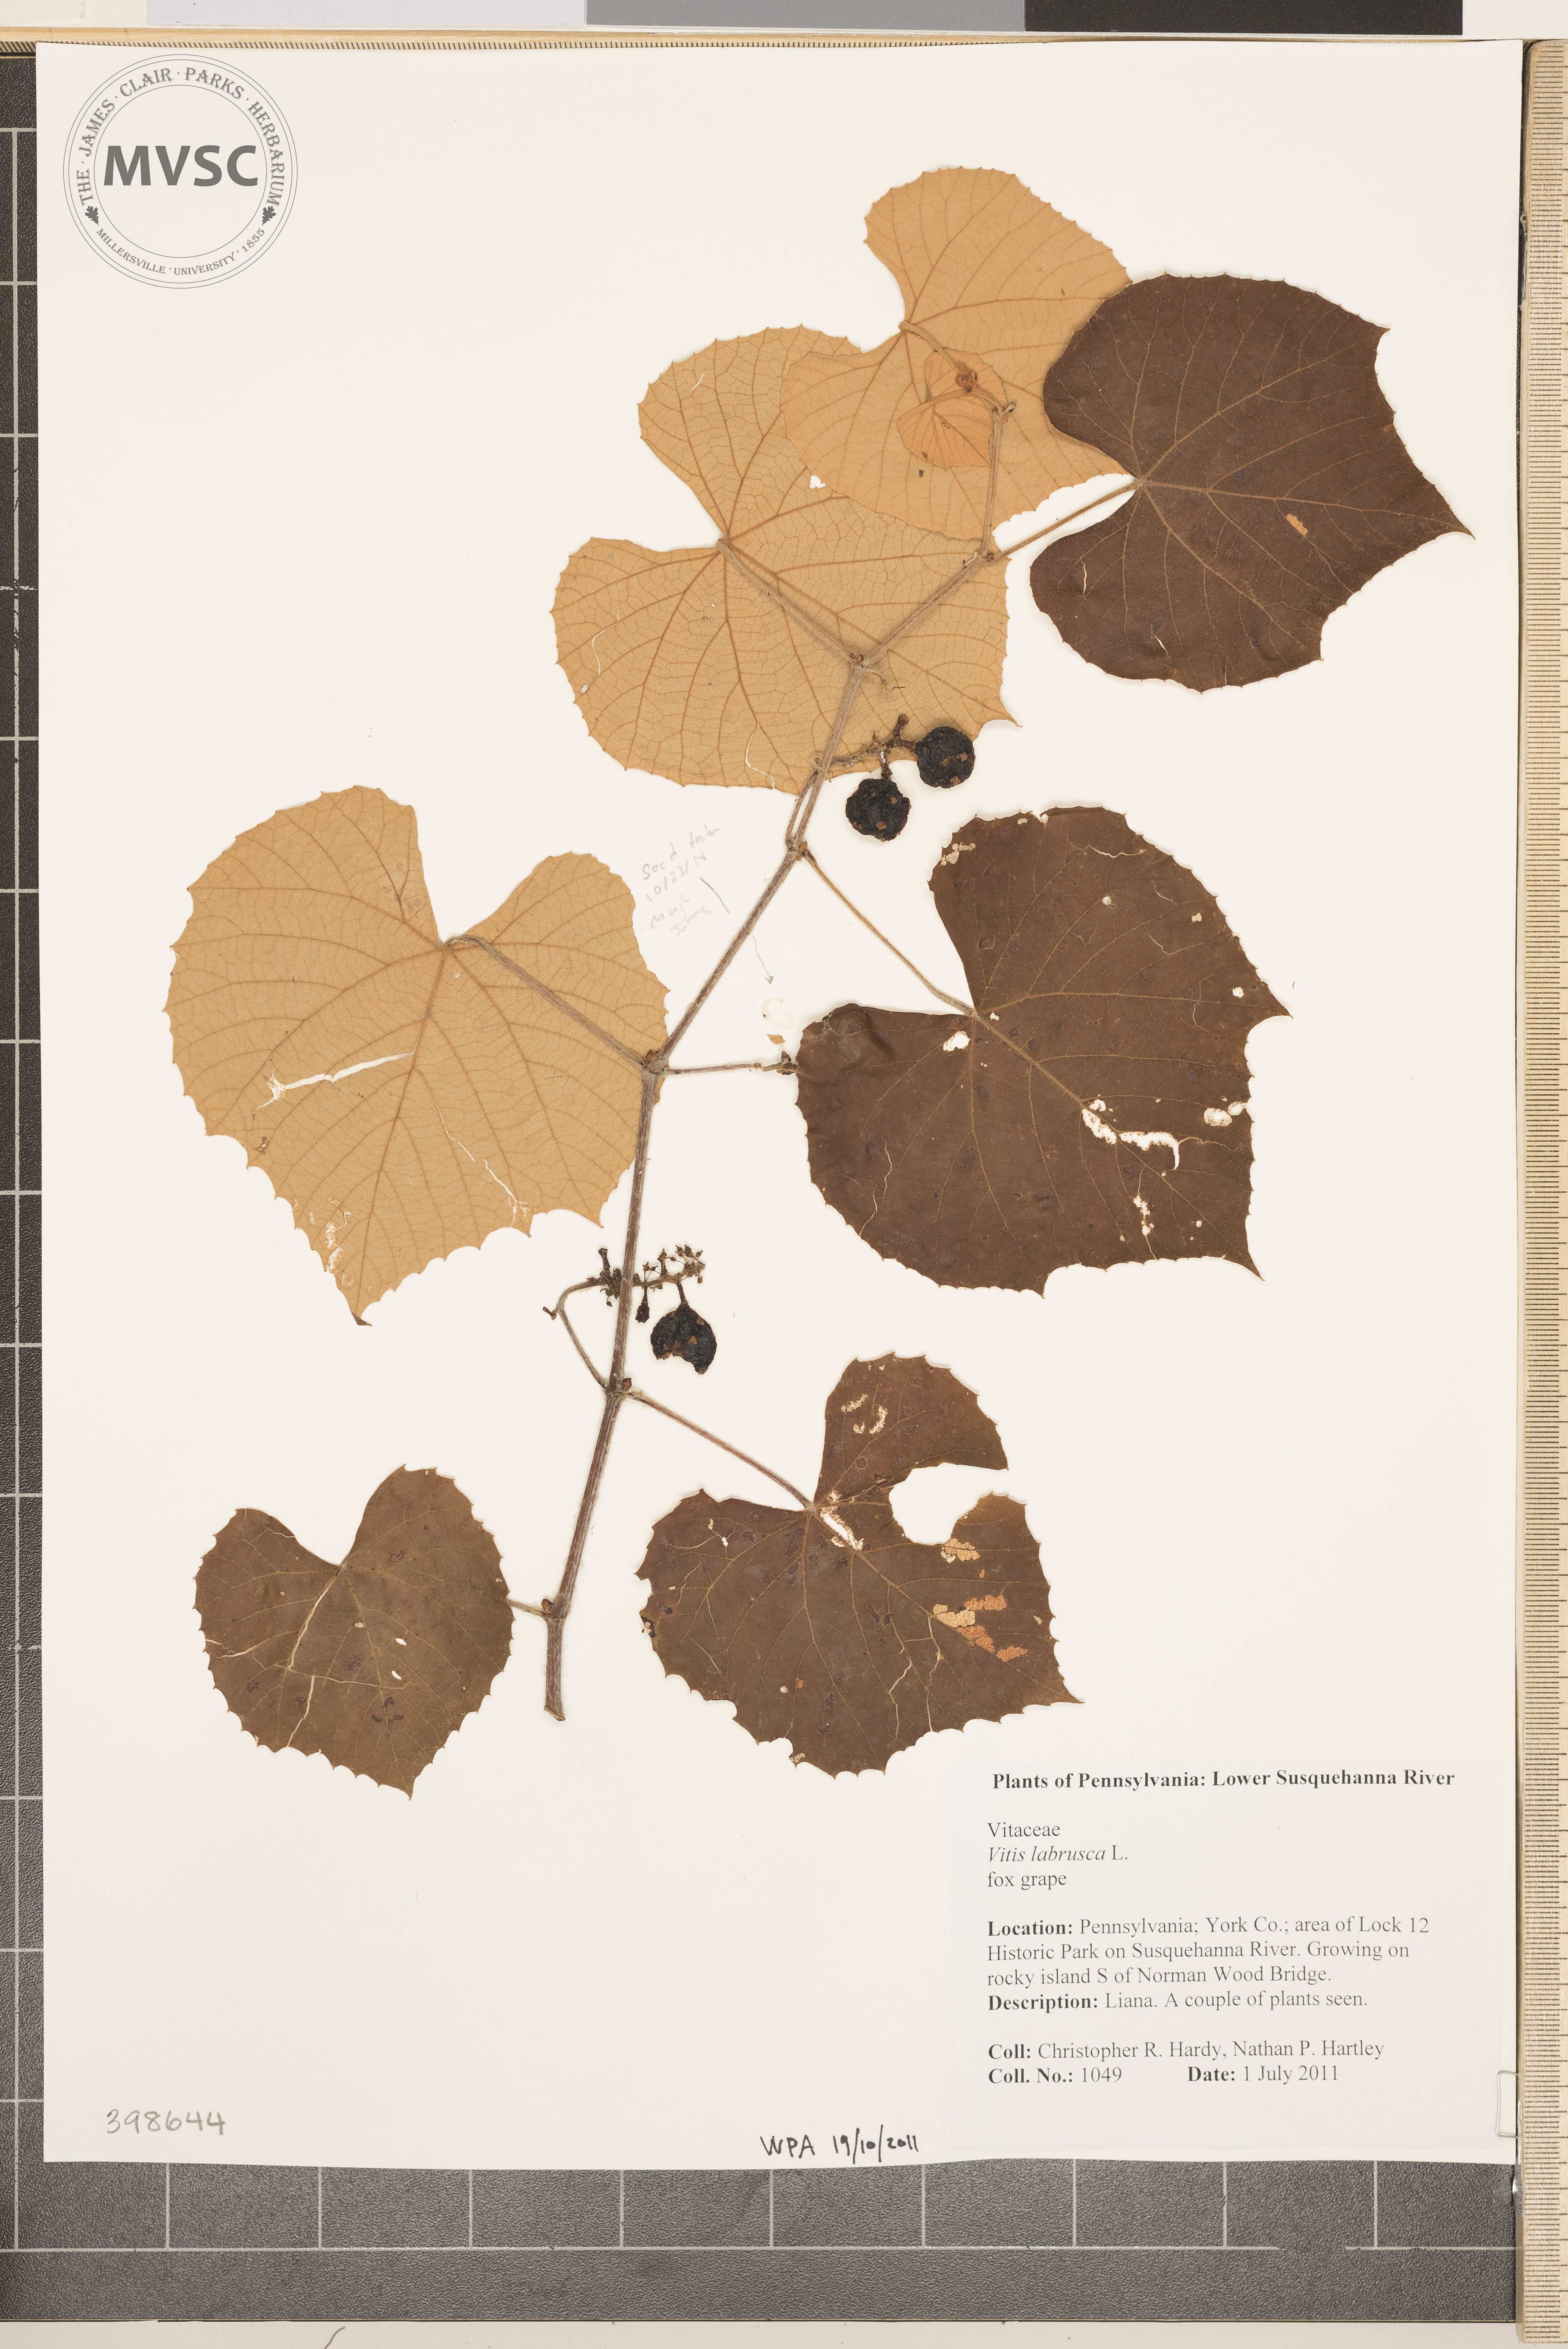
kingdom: Plantae
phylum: Tracheophyta
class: Magnoliopsida
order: Vitales
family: Vitaceae
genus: Vitis
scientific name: Vitis labrusca
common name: Fox grape
